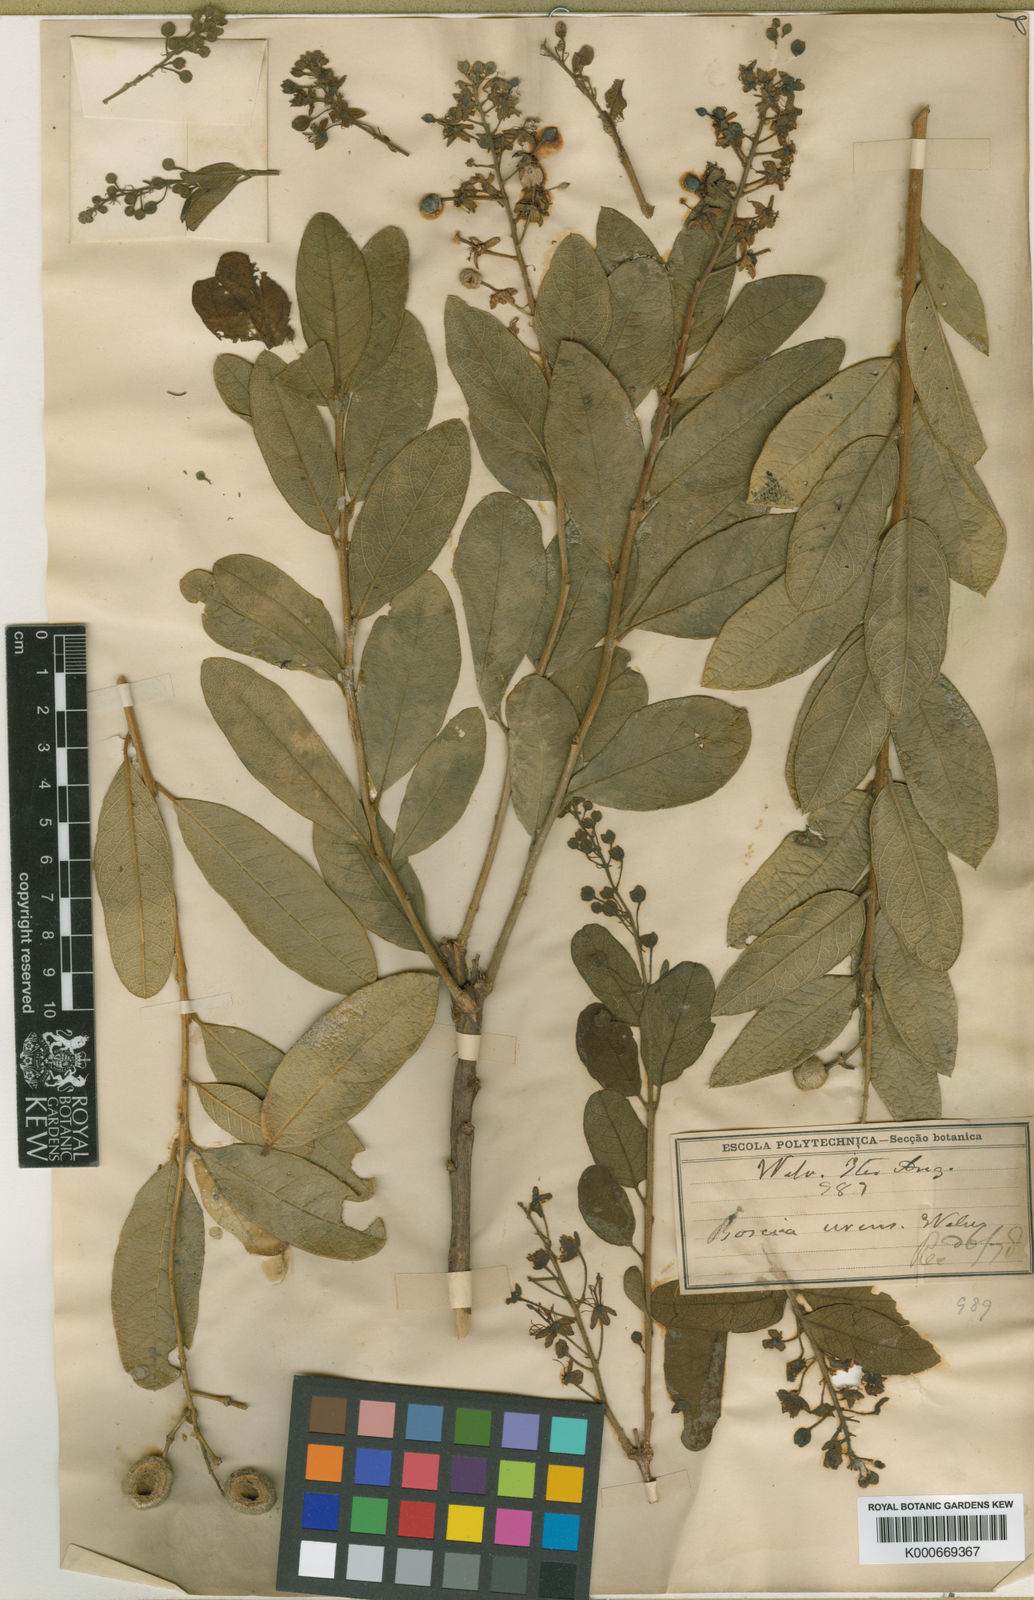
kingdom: Plantae
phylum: Tracheophyta
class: Magnoliopsida
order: Brassicales
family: Capparaceae
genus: Boscia
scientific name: Boscia urens
